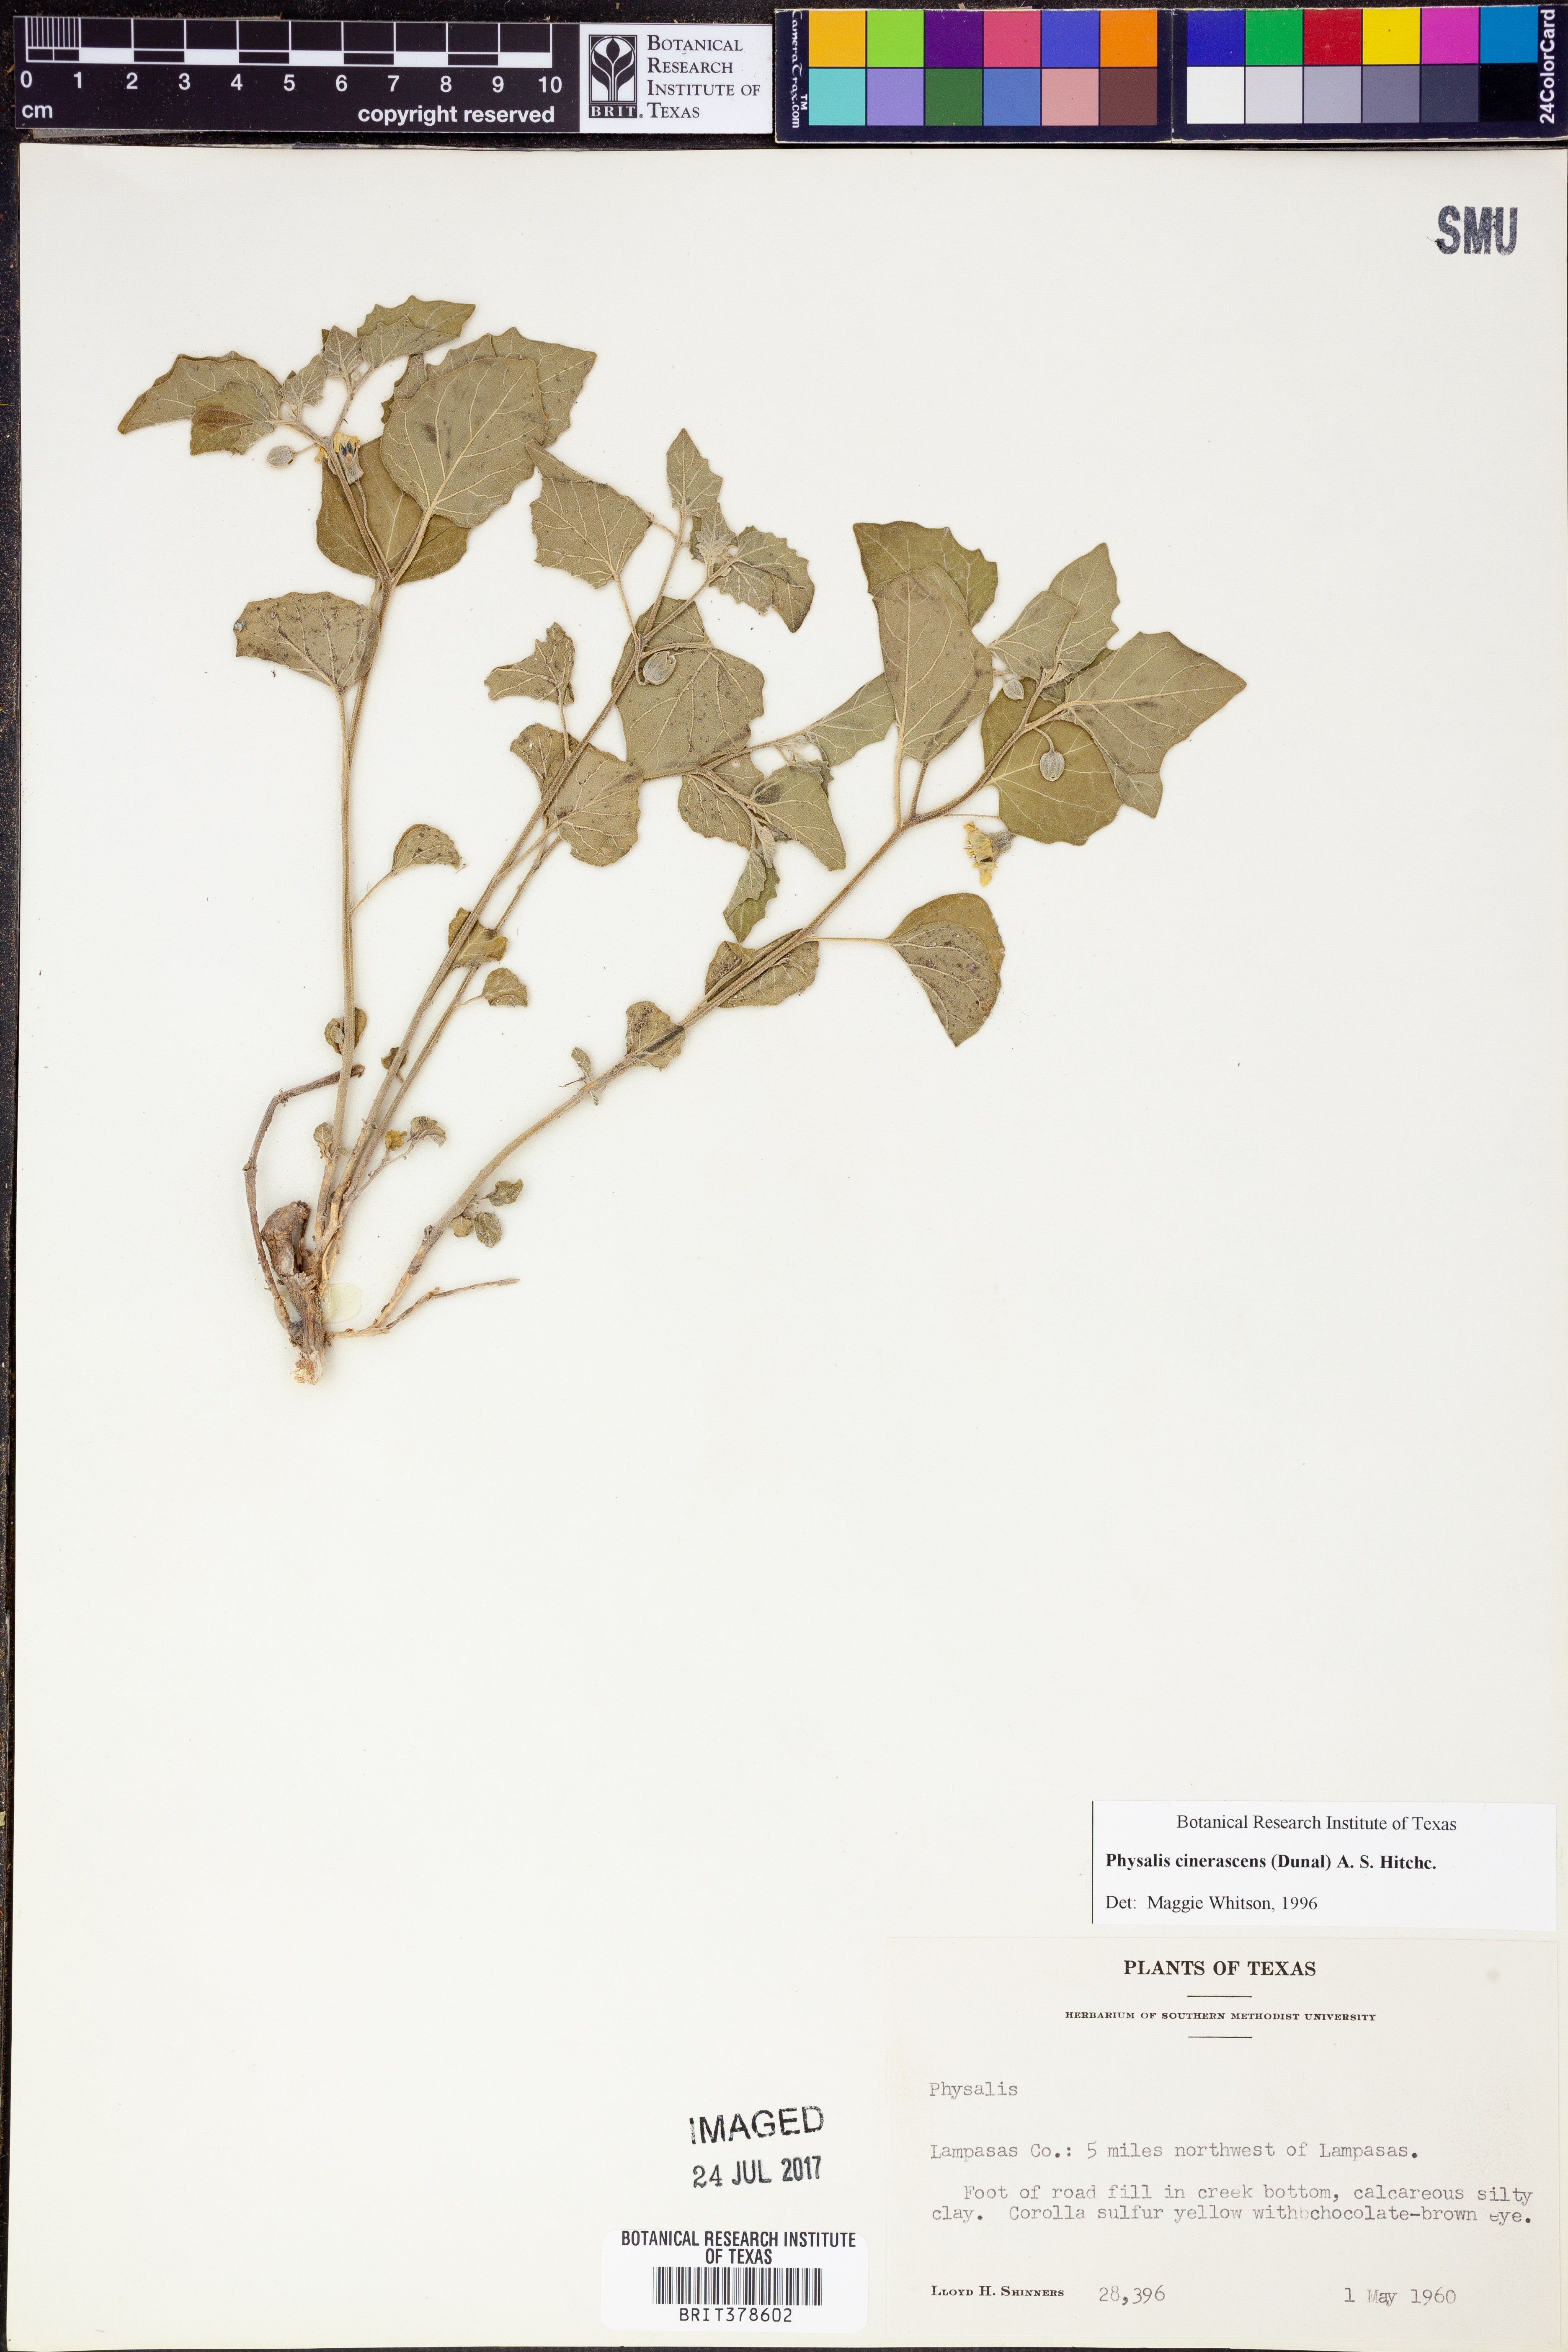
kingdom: Plantae
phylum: Tracheophyta
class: Magnoliopsida
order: Solanales
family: Solanaceae
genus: Physalis
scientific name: Physalis cinerascens
